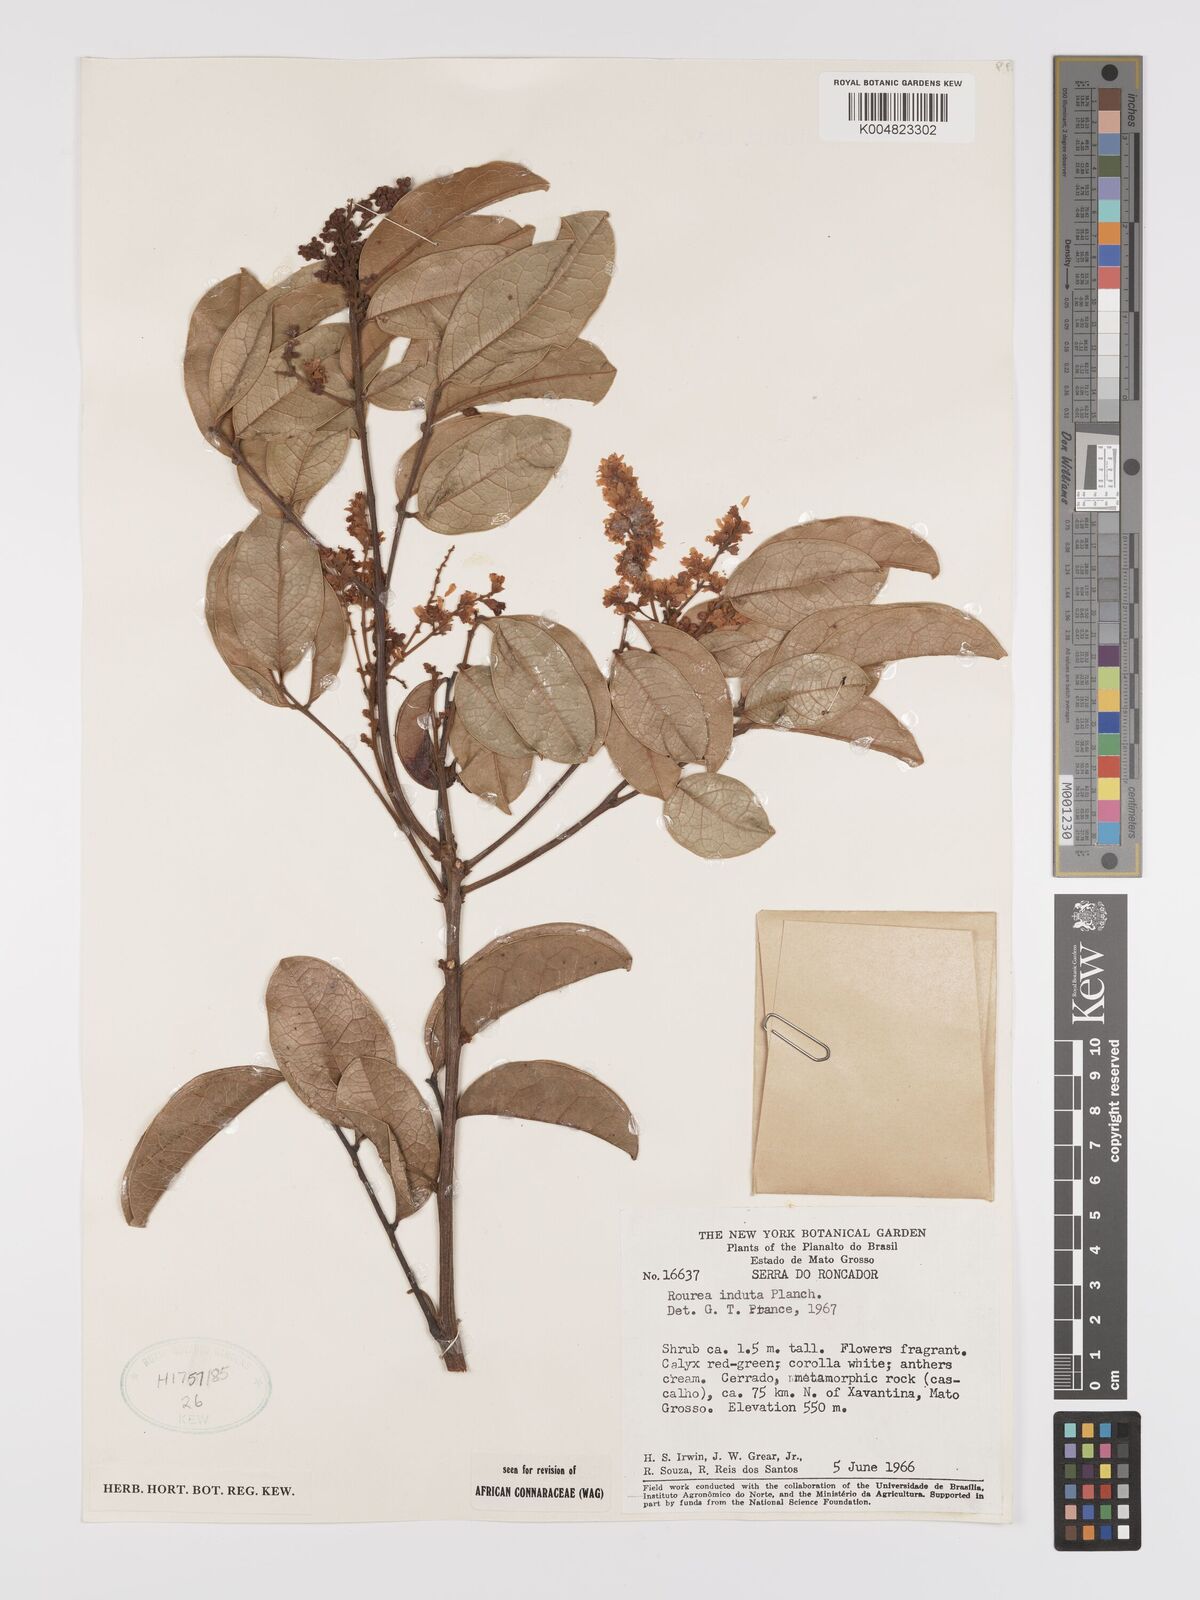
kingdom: Plantae
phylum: Tracheophyta
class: Magnoliopsida
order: Oxalidales
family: Connaraceae
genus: Rourea
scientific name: Rourea induta
